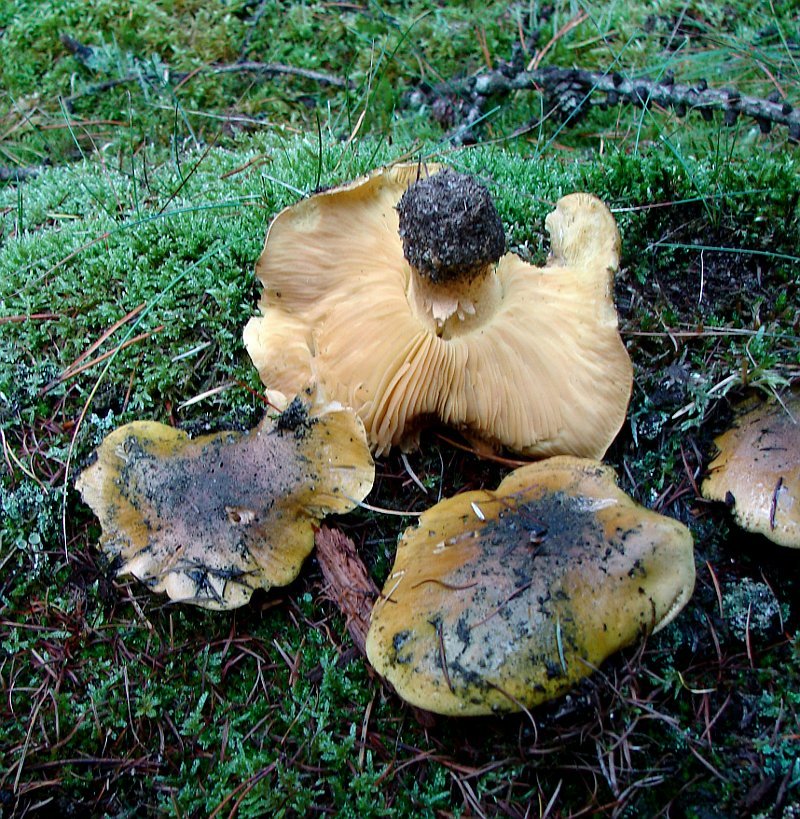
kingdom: Fungi
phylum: Basidiomycota
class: Agaricomycetes
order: Agaricales
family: Tricholomataceae
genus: Tricholoma
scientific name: Tricholoma equestre
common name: ægte ridderhat
